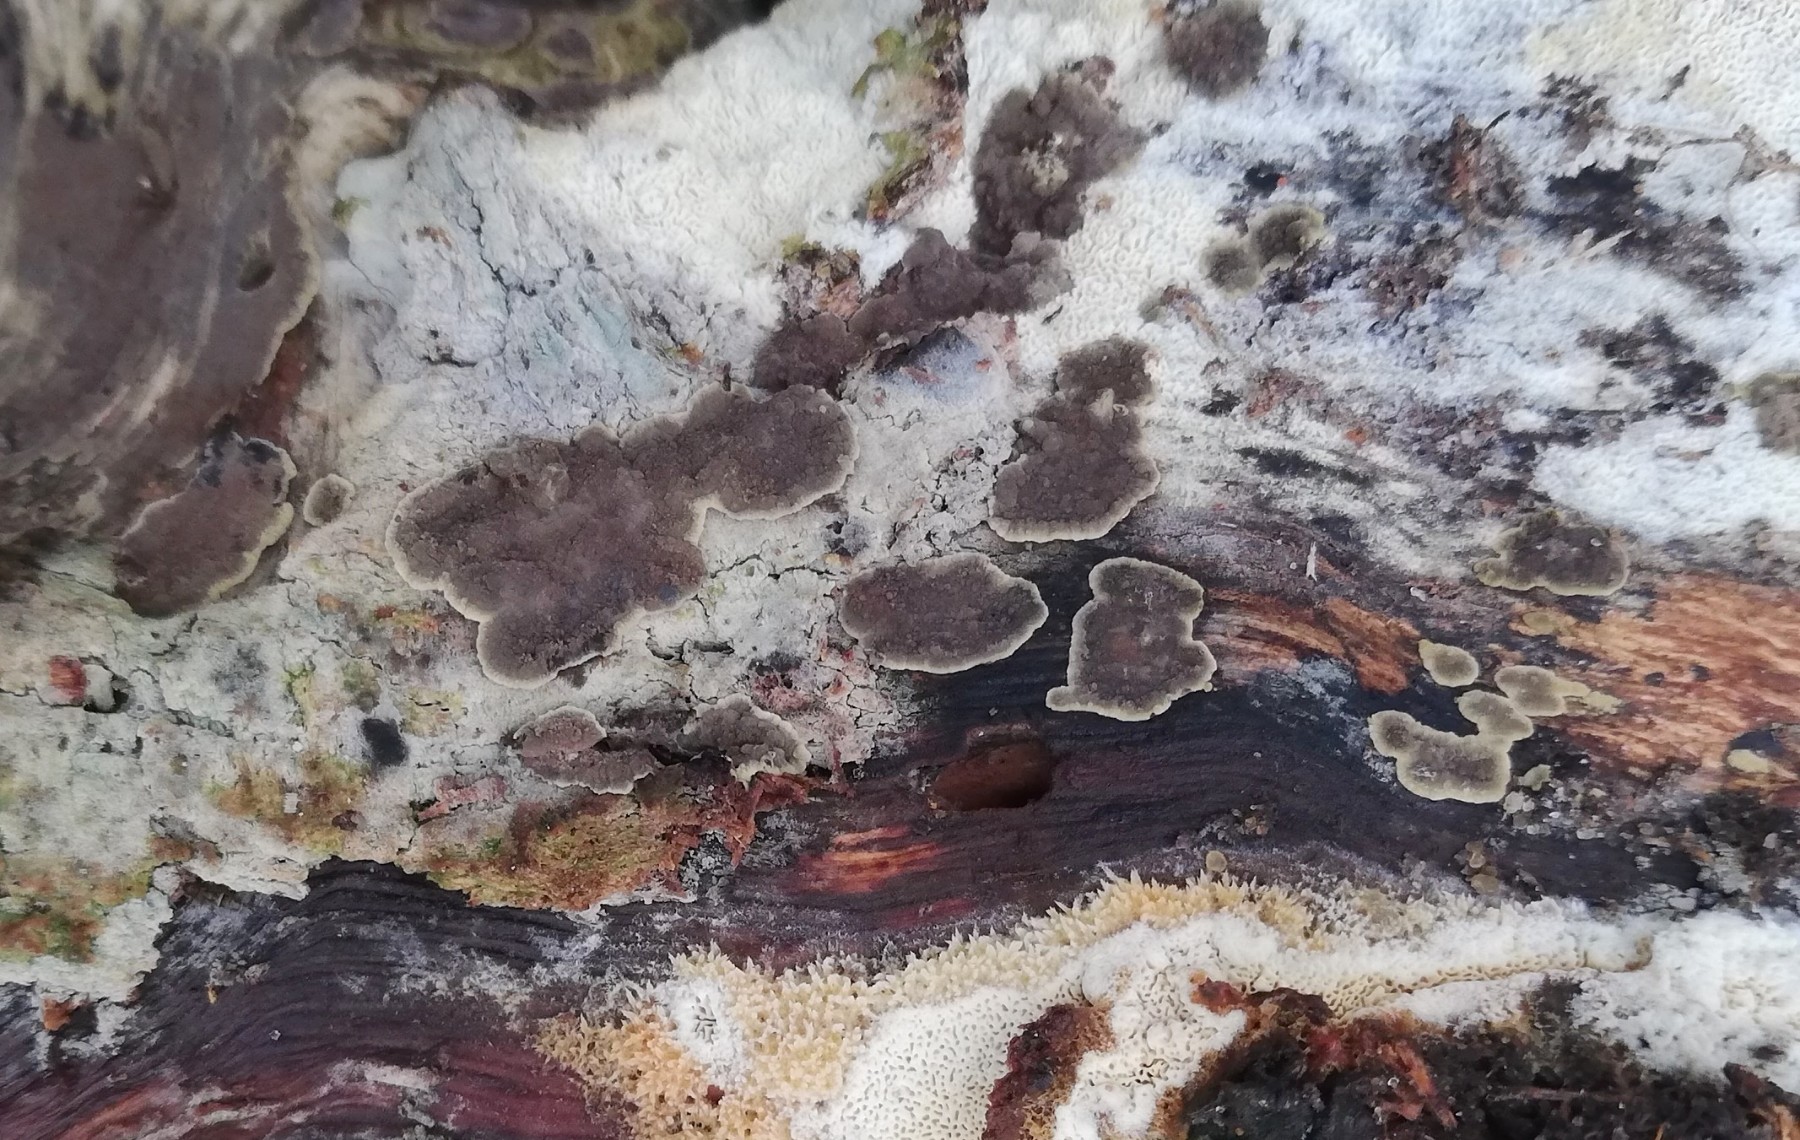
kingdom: Fungi
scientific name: Fungi
